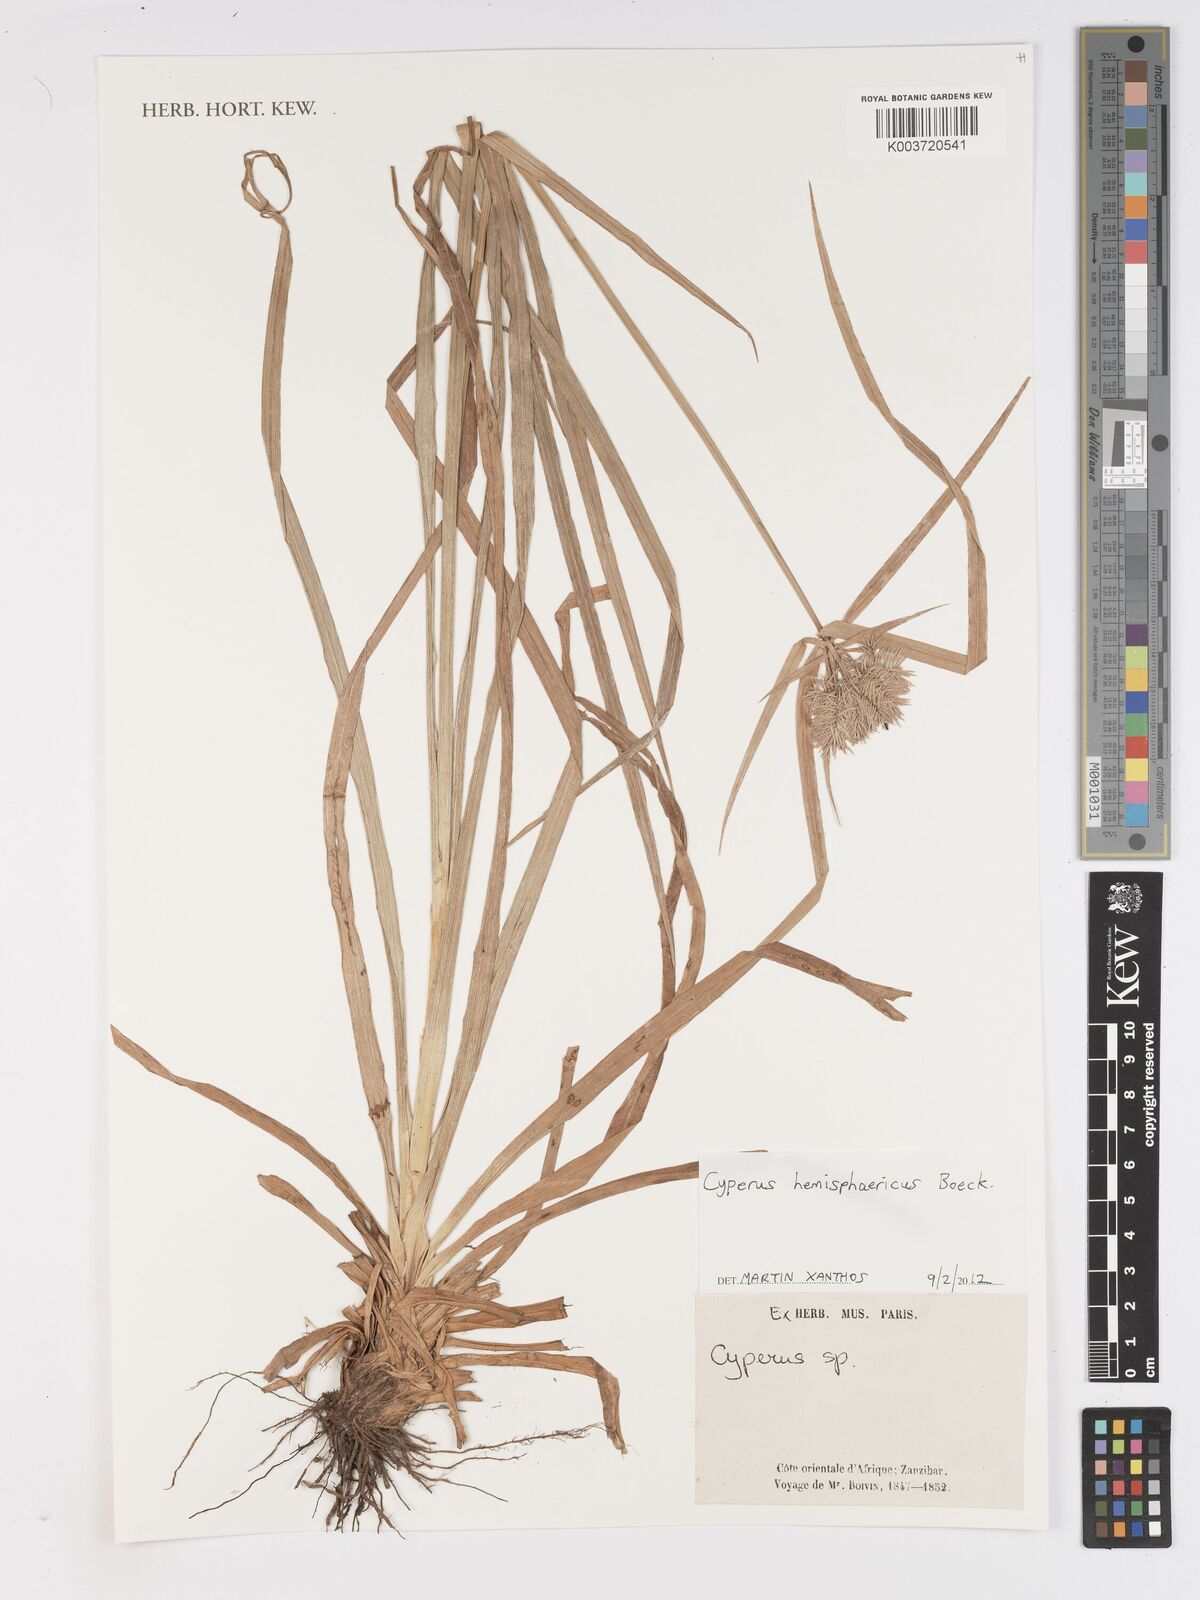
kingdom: Plantae
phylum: Tracheophyta
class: Liliopsida
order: Poales
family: Cyperaceae
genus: Cyperus
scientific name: Cyperus hemisphaericus
